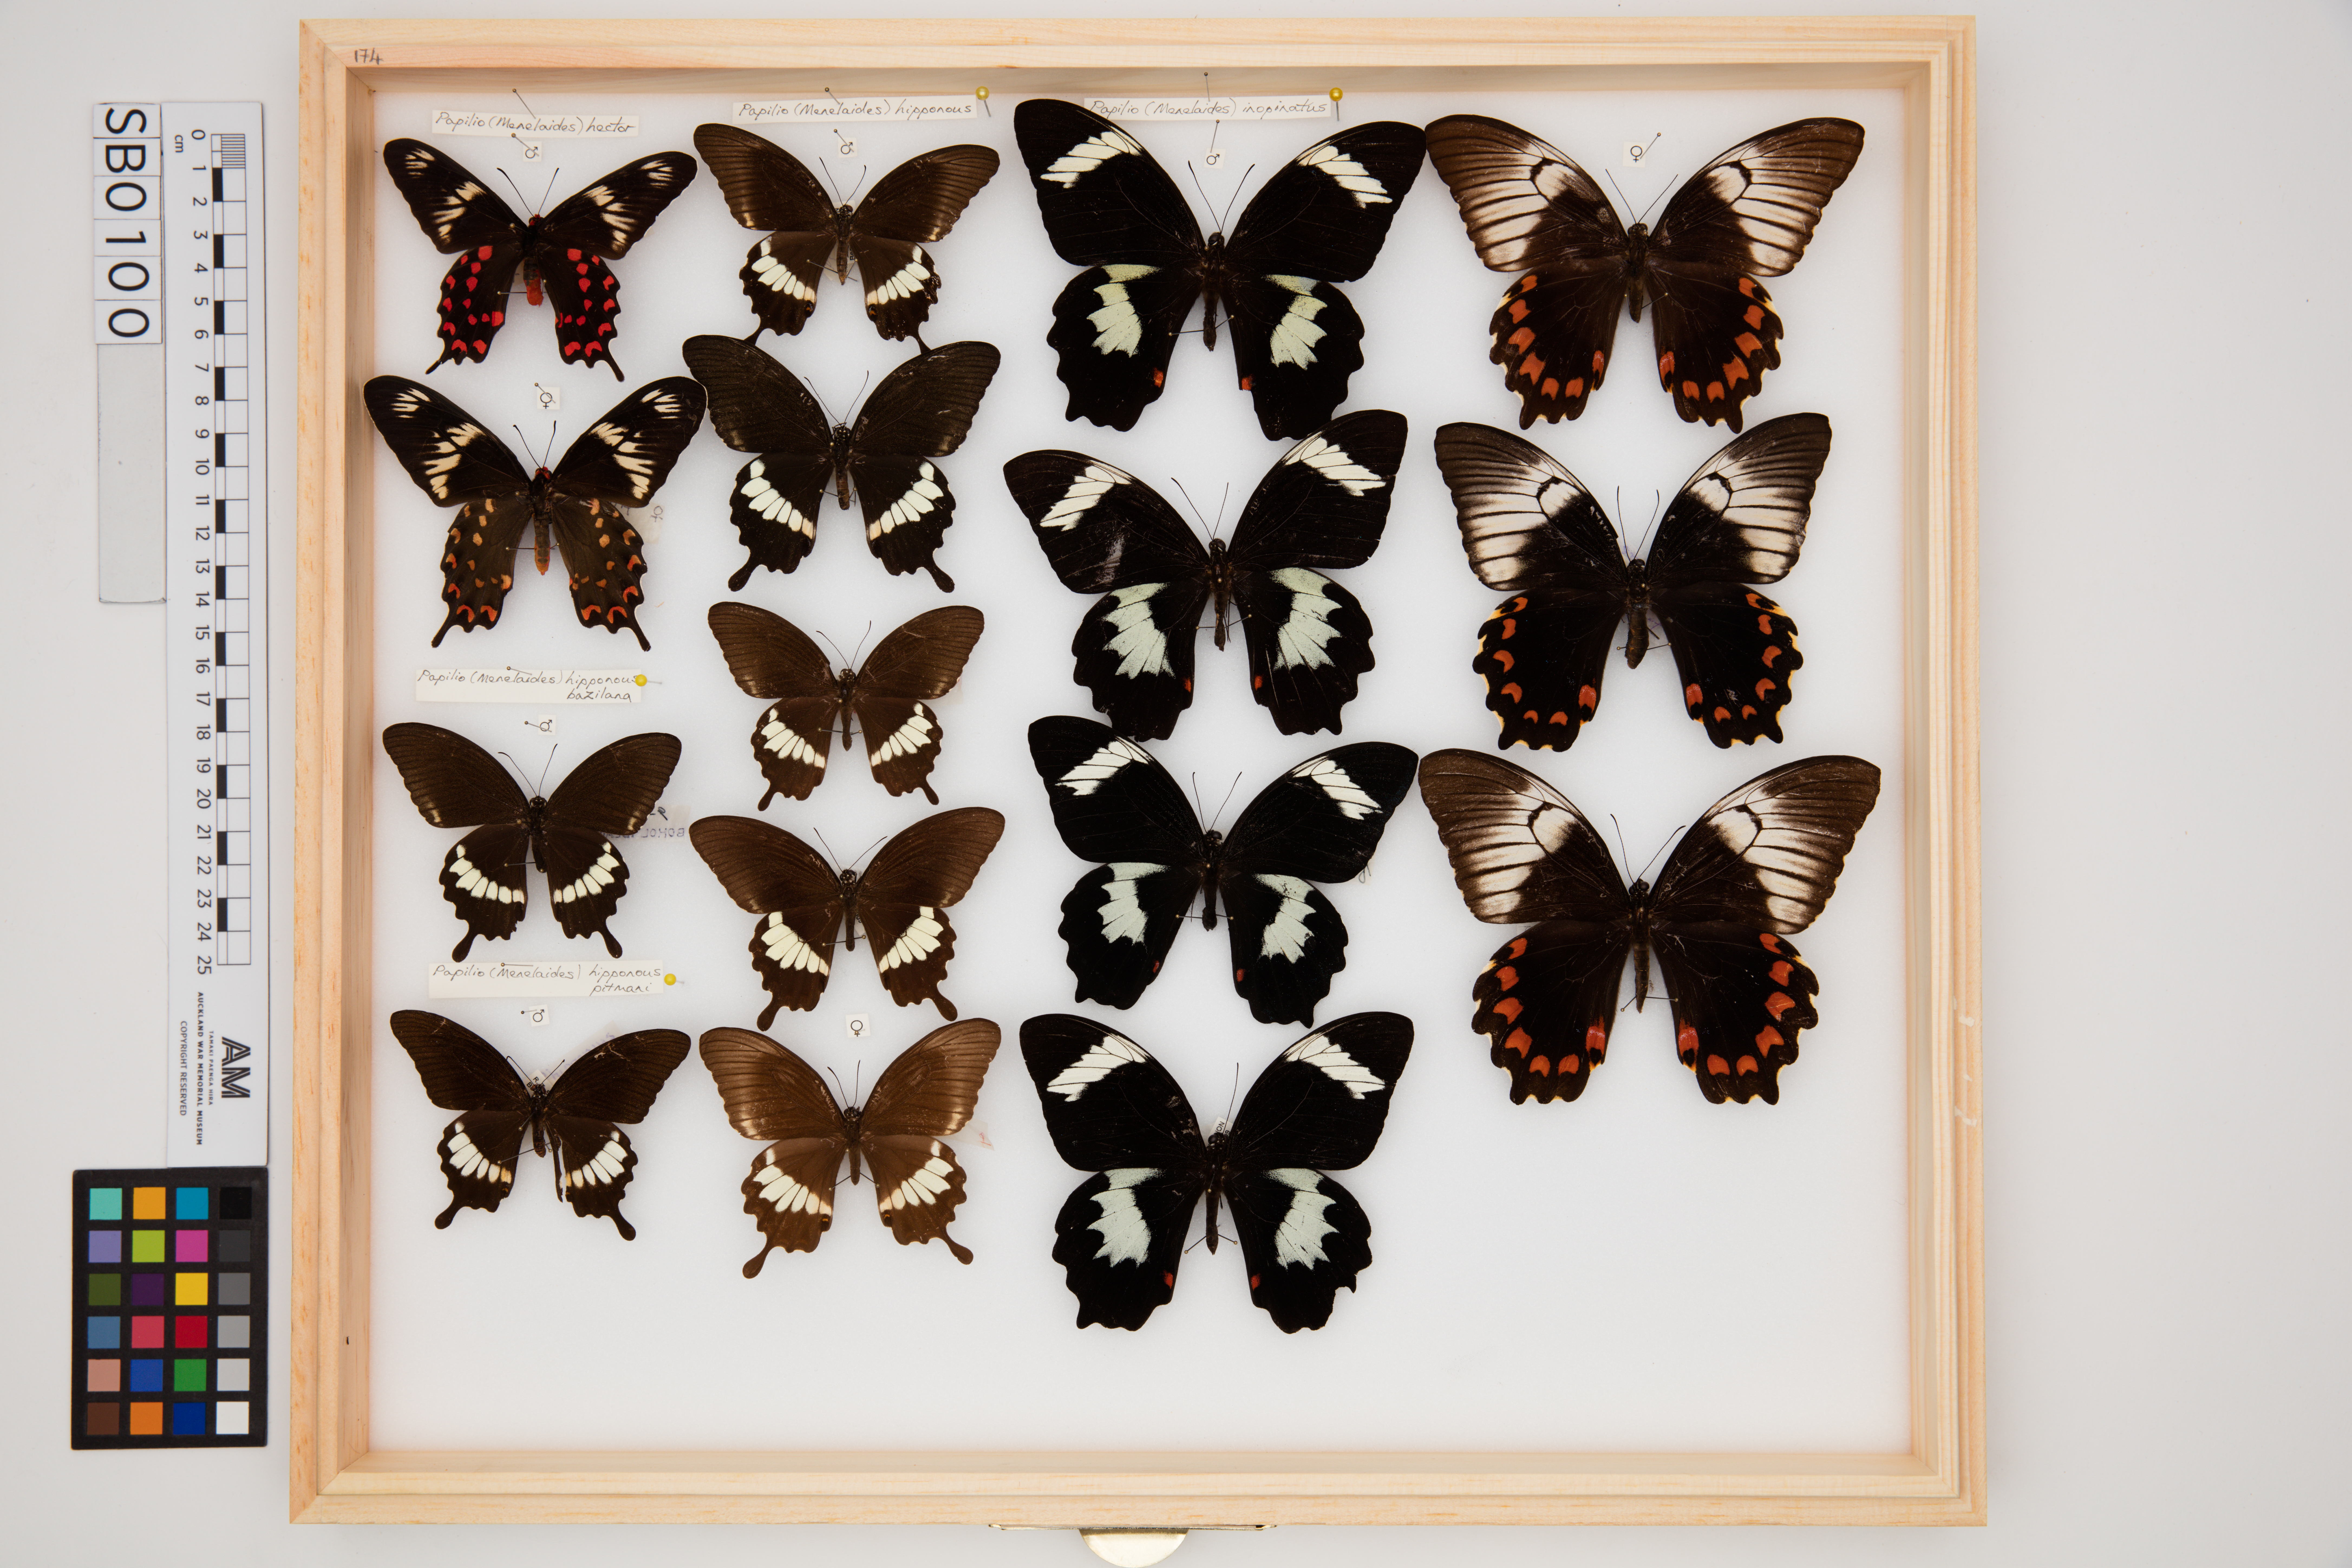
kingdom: Animalia
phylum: Arthropoda
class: Insecta
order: Lepidoptera
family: Papilionidae
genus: Papilio
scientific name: Papilio inopinatus
